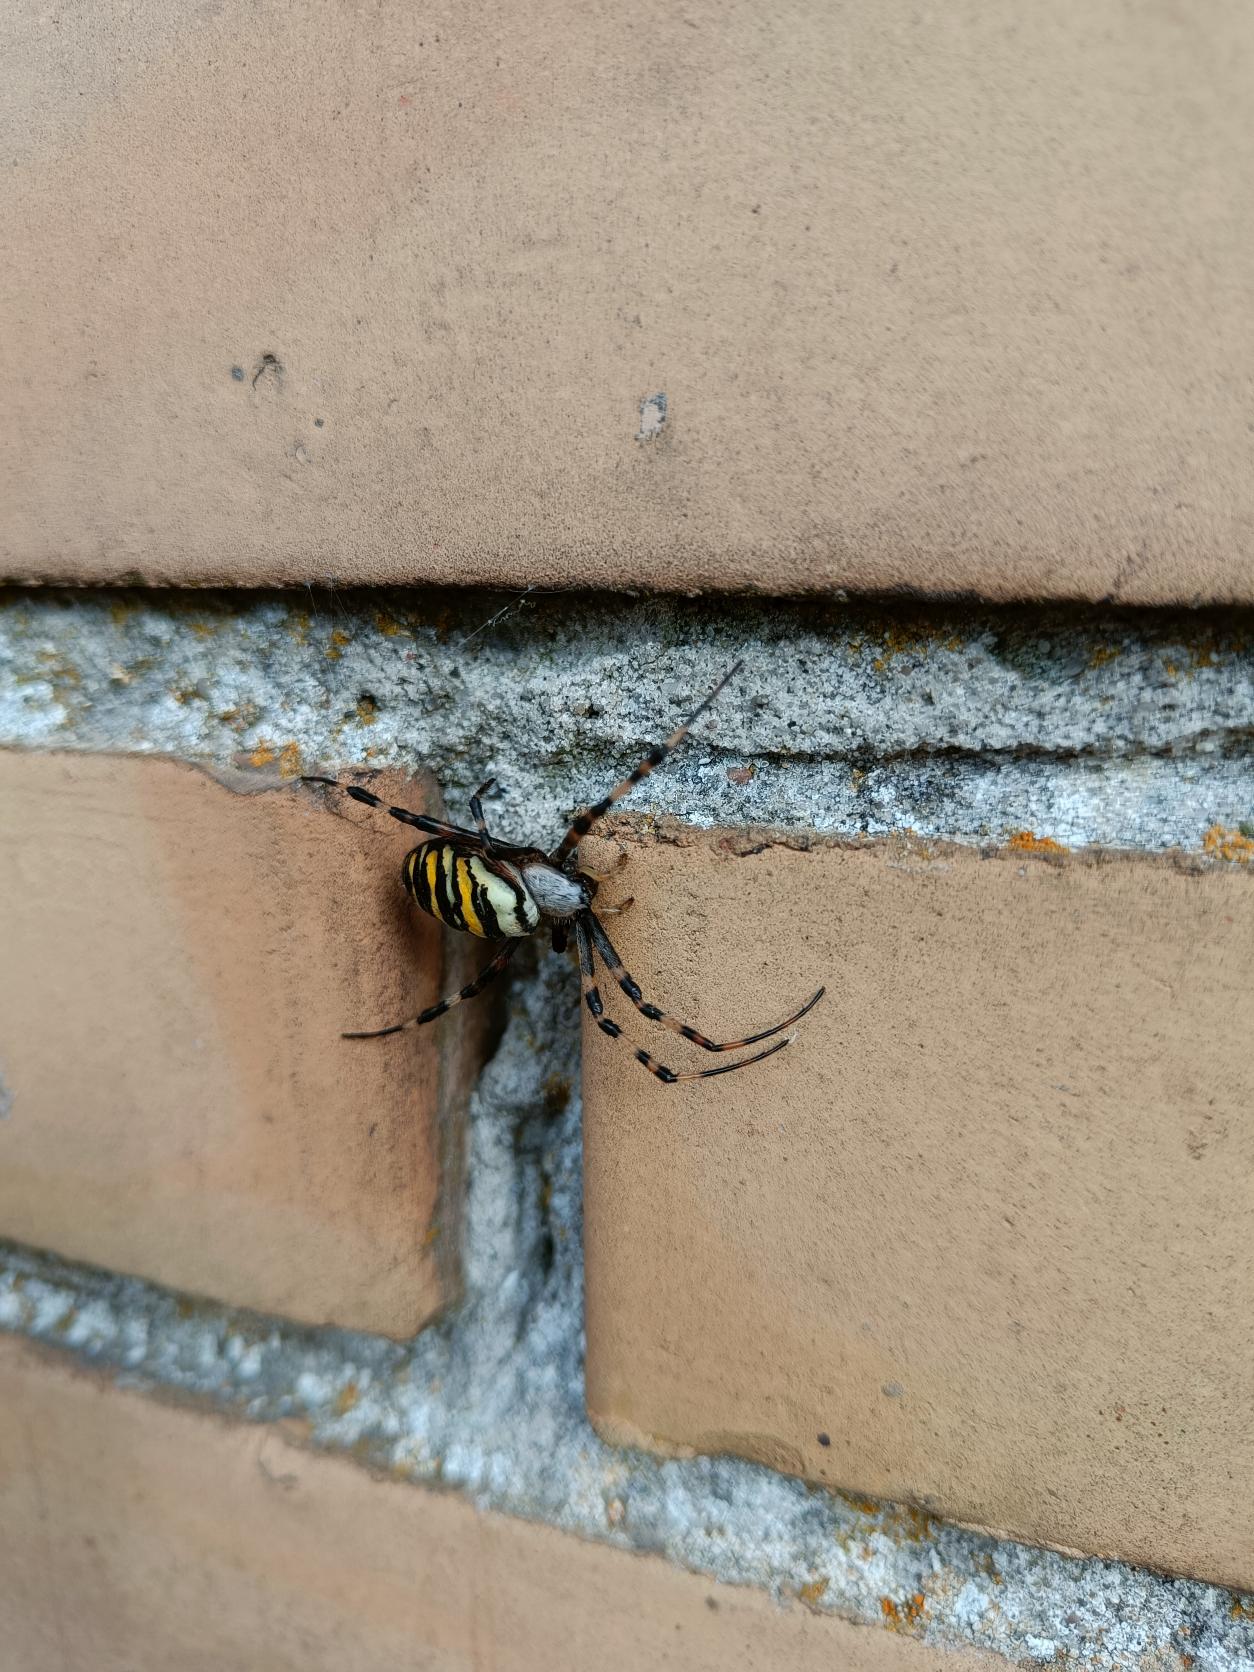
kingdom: Animalia
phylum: Arthropoda
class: Arachnida
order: Araneae
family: Araneidae
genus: Argiope
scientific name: Argiope bruennichi
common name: Hvepseedderkop
